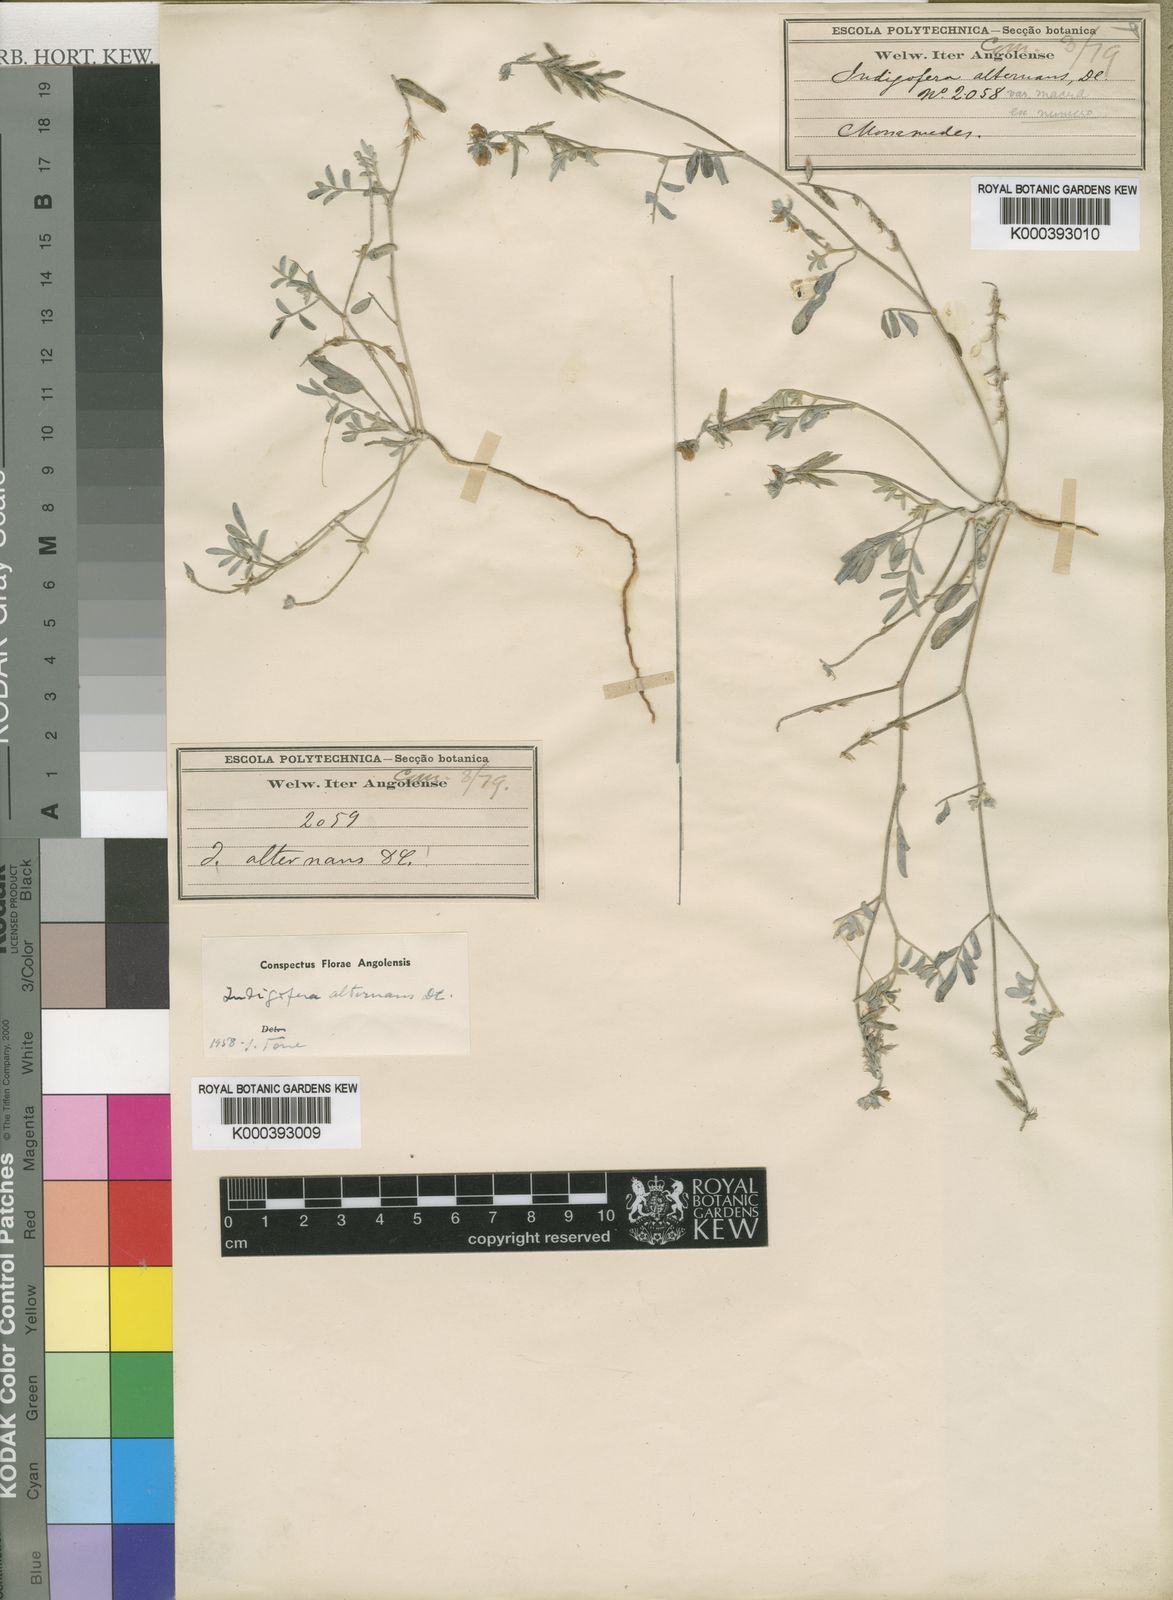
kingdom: Plantae
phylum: Tracheophyta
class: Magnoliopsida
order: Fabales
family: Fabaceae
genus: Indigofera
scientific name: Indigofera alternans
